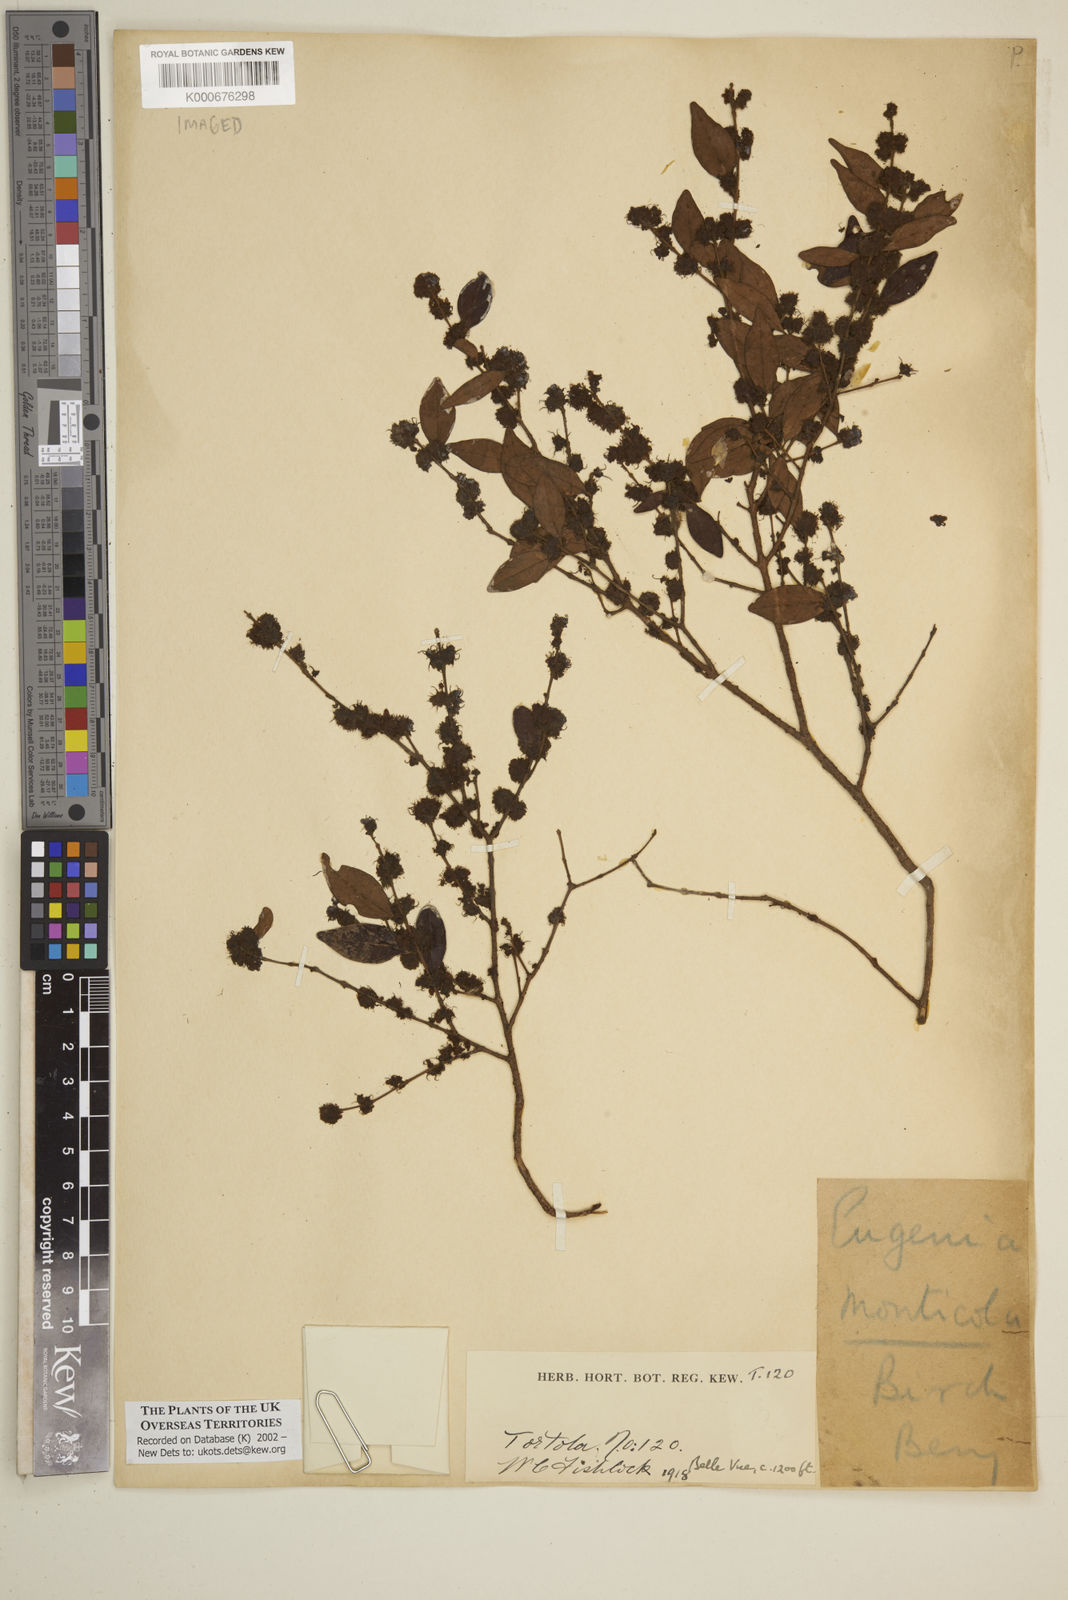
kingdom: Plantae
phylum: Tracheophyta
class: Magnoliopsida
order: Myrtales
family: Myrtaceae
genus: Eugenia
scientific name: Eugenia monticola
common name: Birds berry
